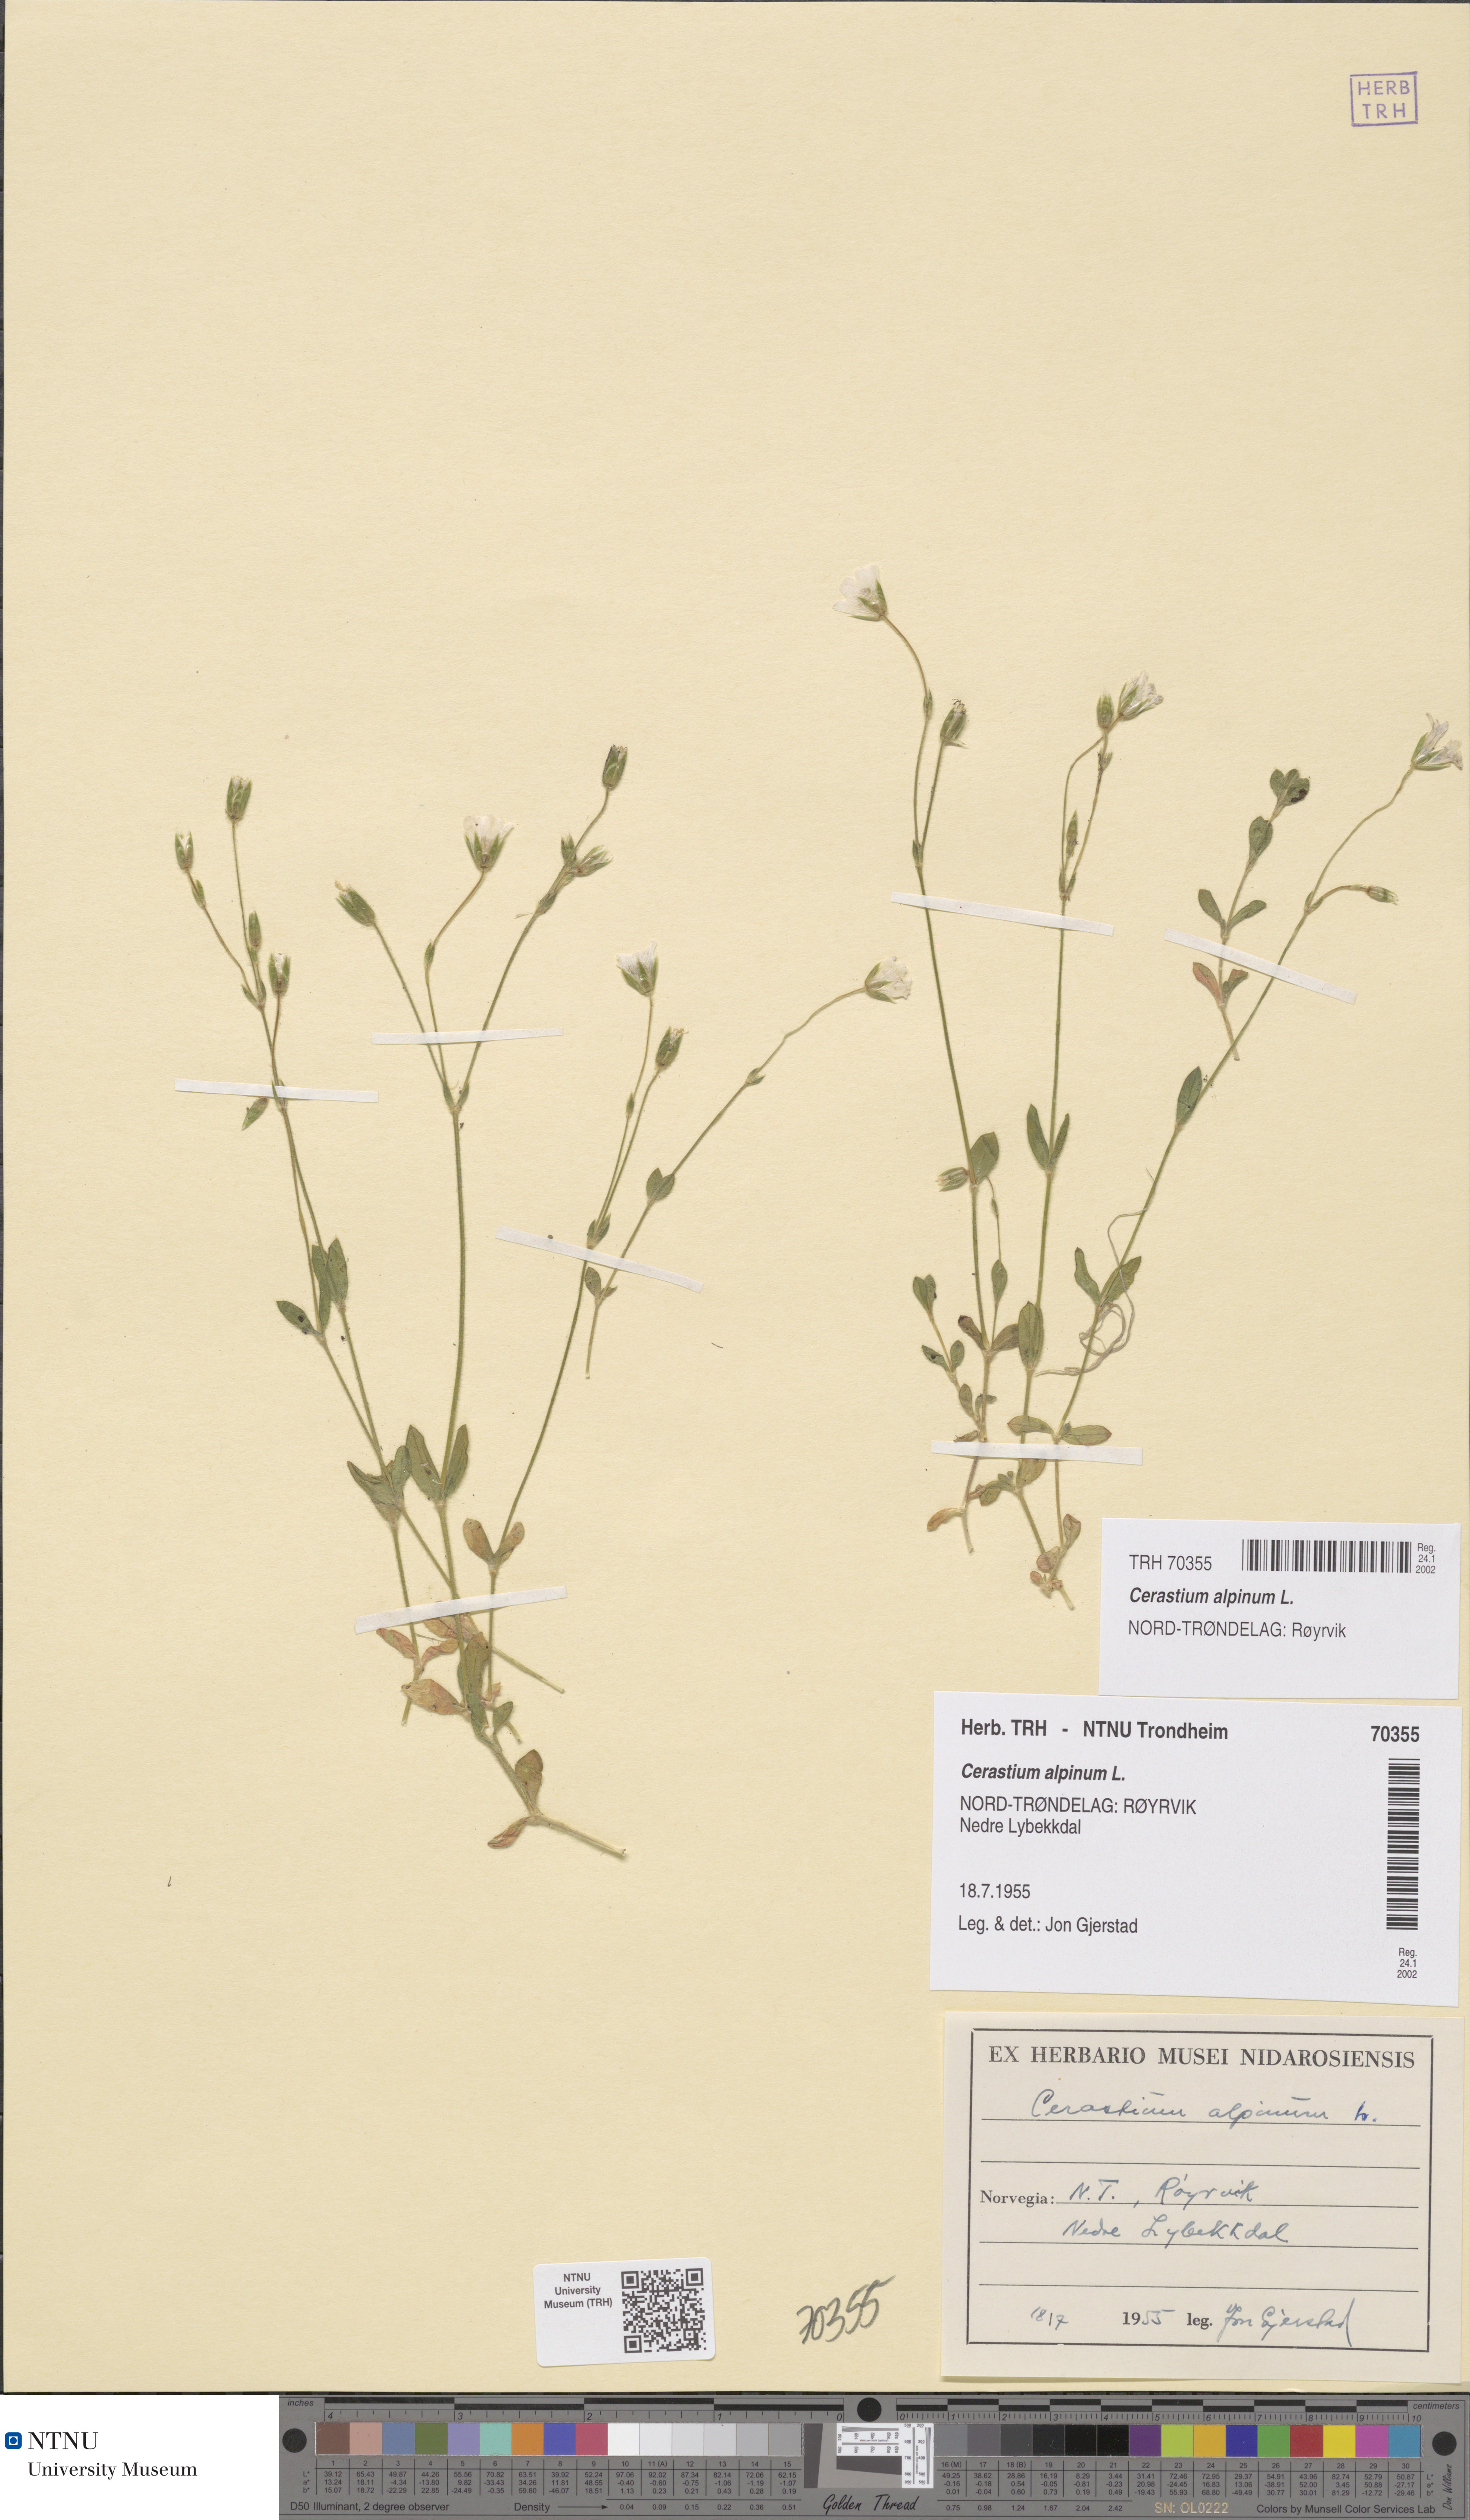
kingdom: Plantae
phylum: Tracheophyta
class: Magnoliopsida
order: Caryophyllales
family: Caryophyllaceae
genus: Cerastium
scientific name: Cerastium alpinum
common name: Alpine mouse-ear
